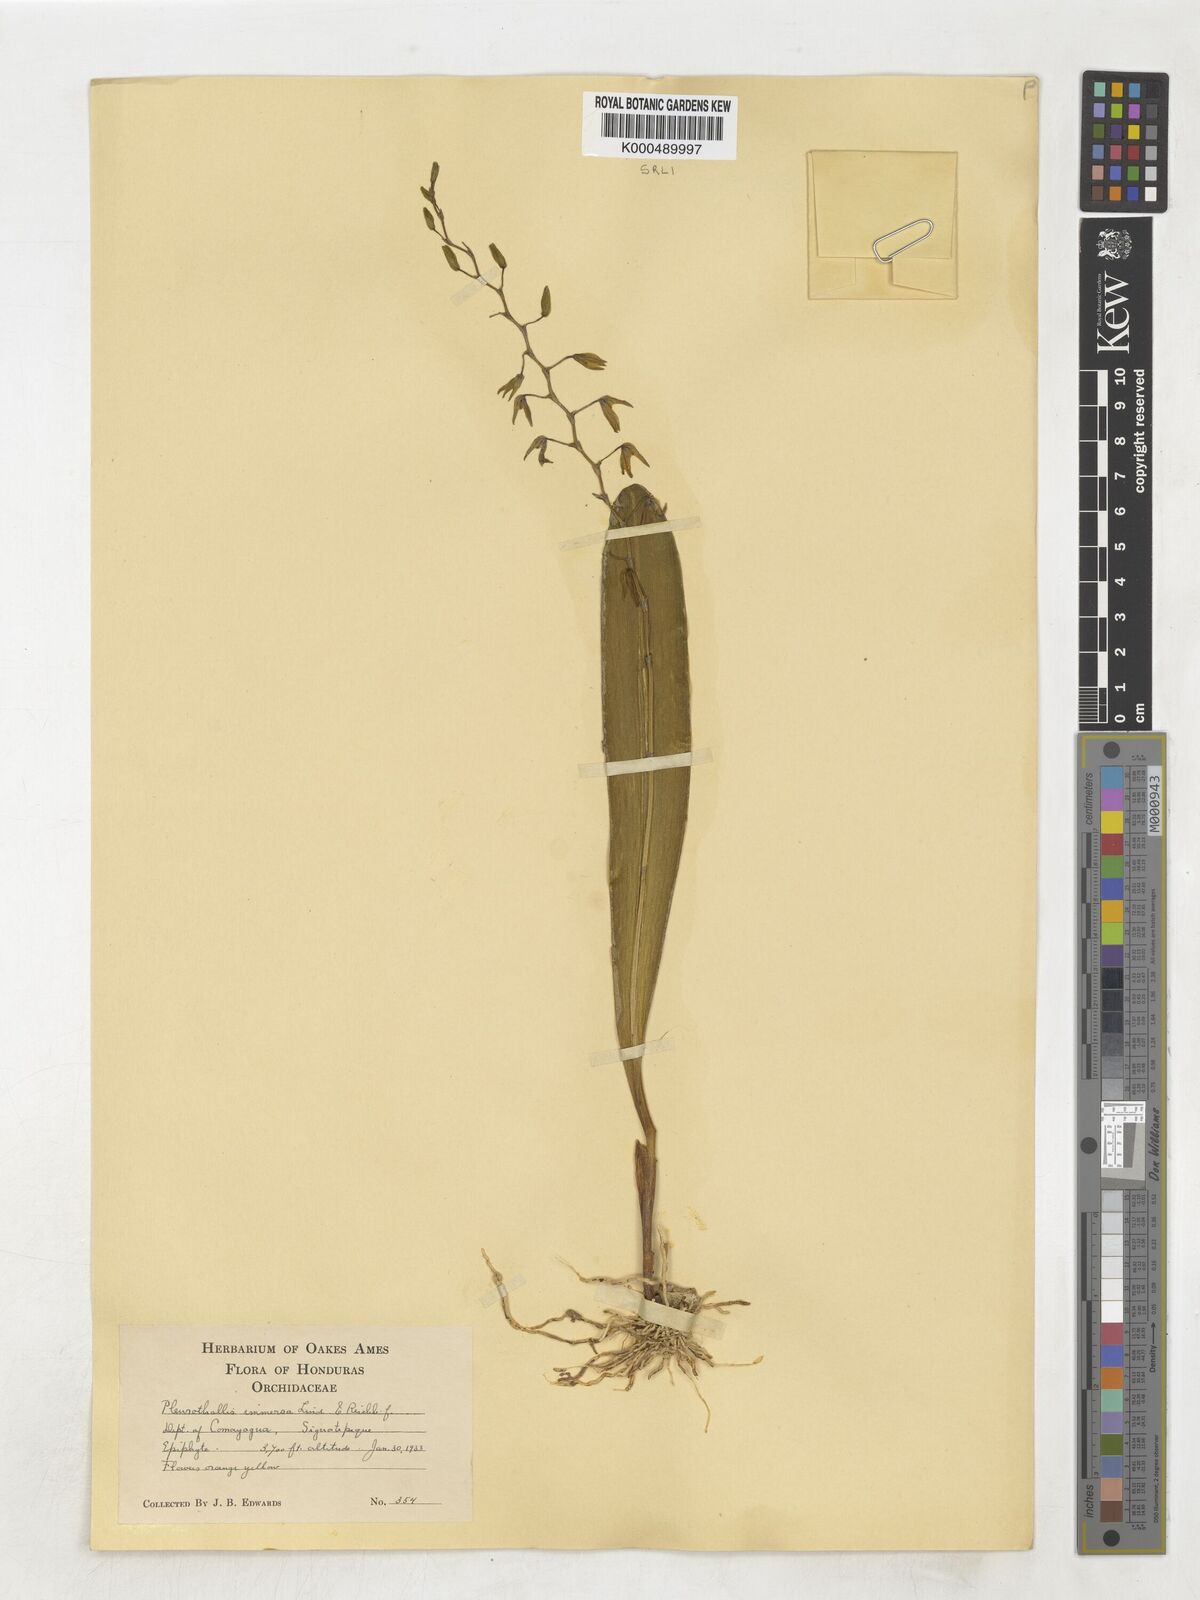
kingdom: Plantae
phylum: Tracheophyta
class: Liliopsida
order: Asparagales
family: Orchidaceae
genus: Stelis
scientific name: Stelis immersa
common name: Sunken pleurothallis
